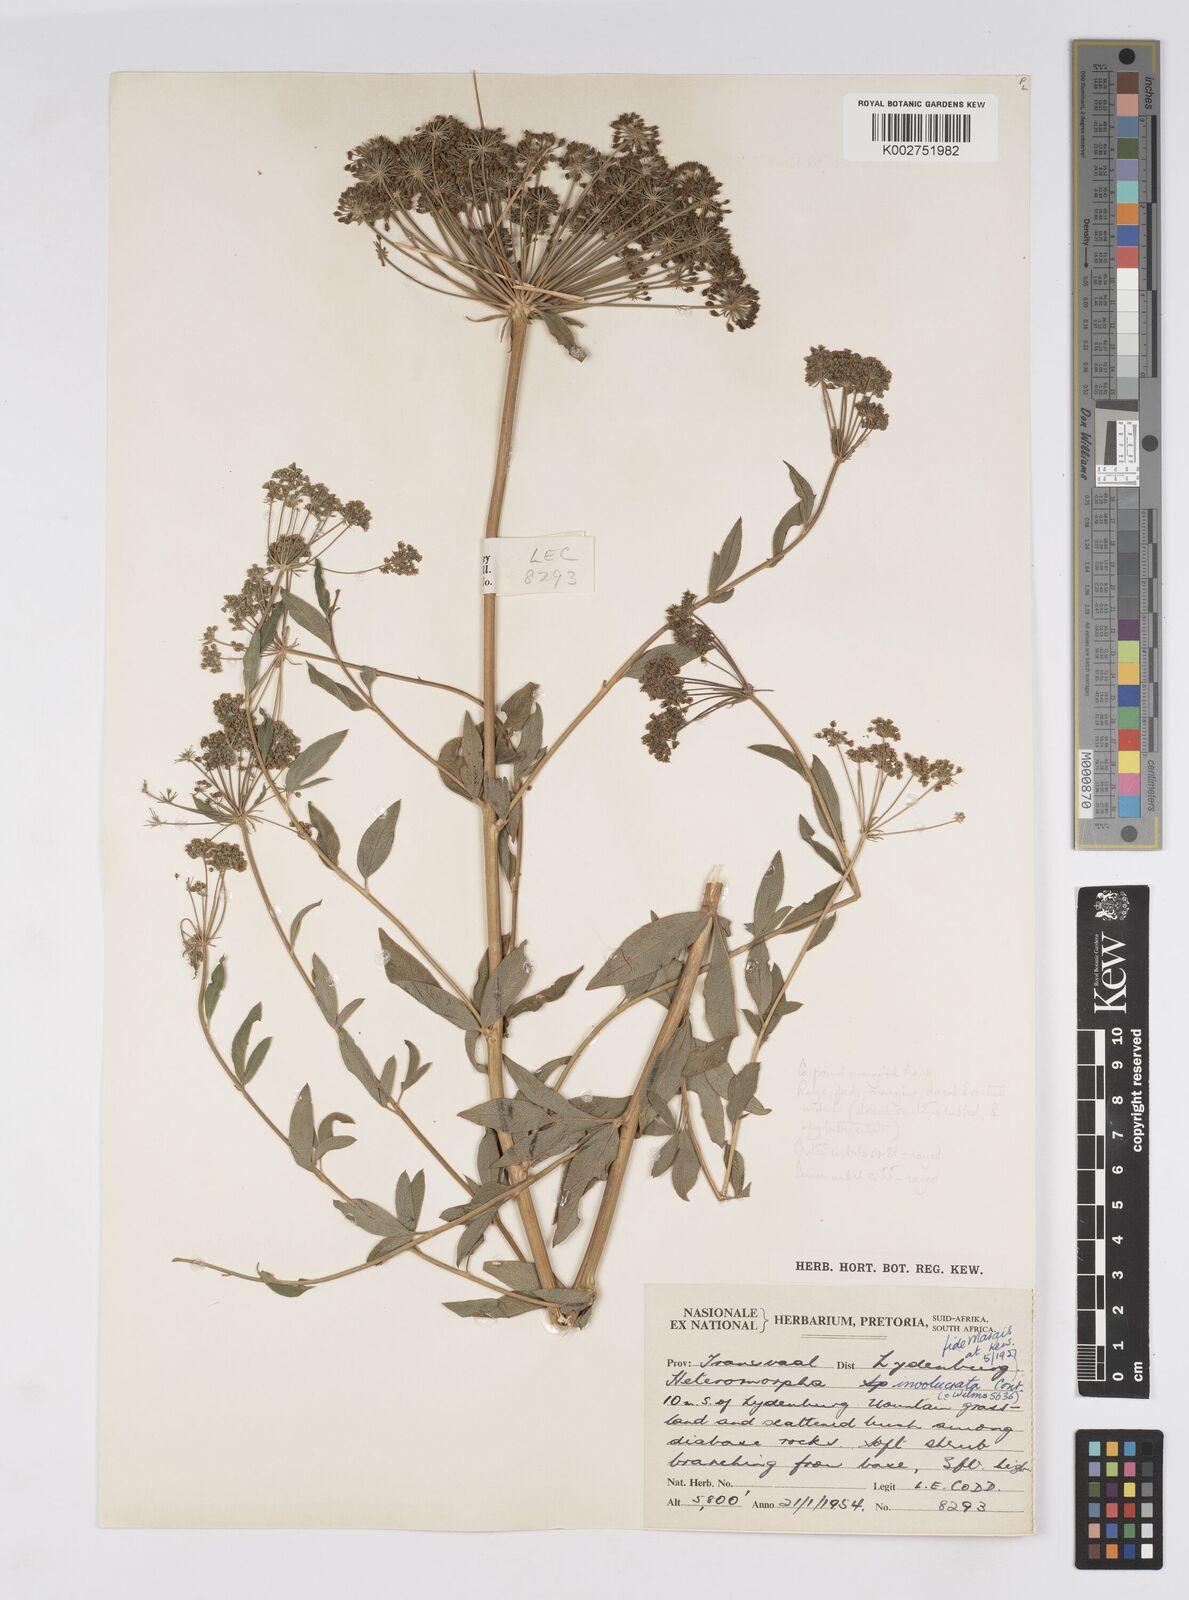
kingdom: Plantae
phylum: Tracheophyta
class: Magnoliopsida
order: Apiales
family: Apiaceae
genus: Heteromorpha
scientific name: Heteromorpha involucrata
